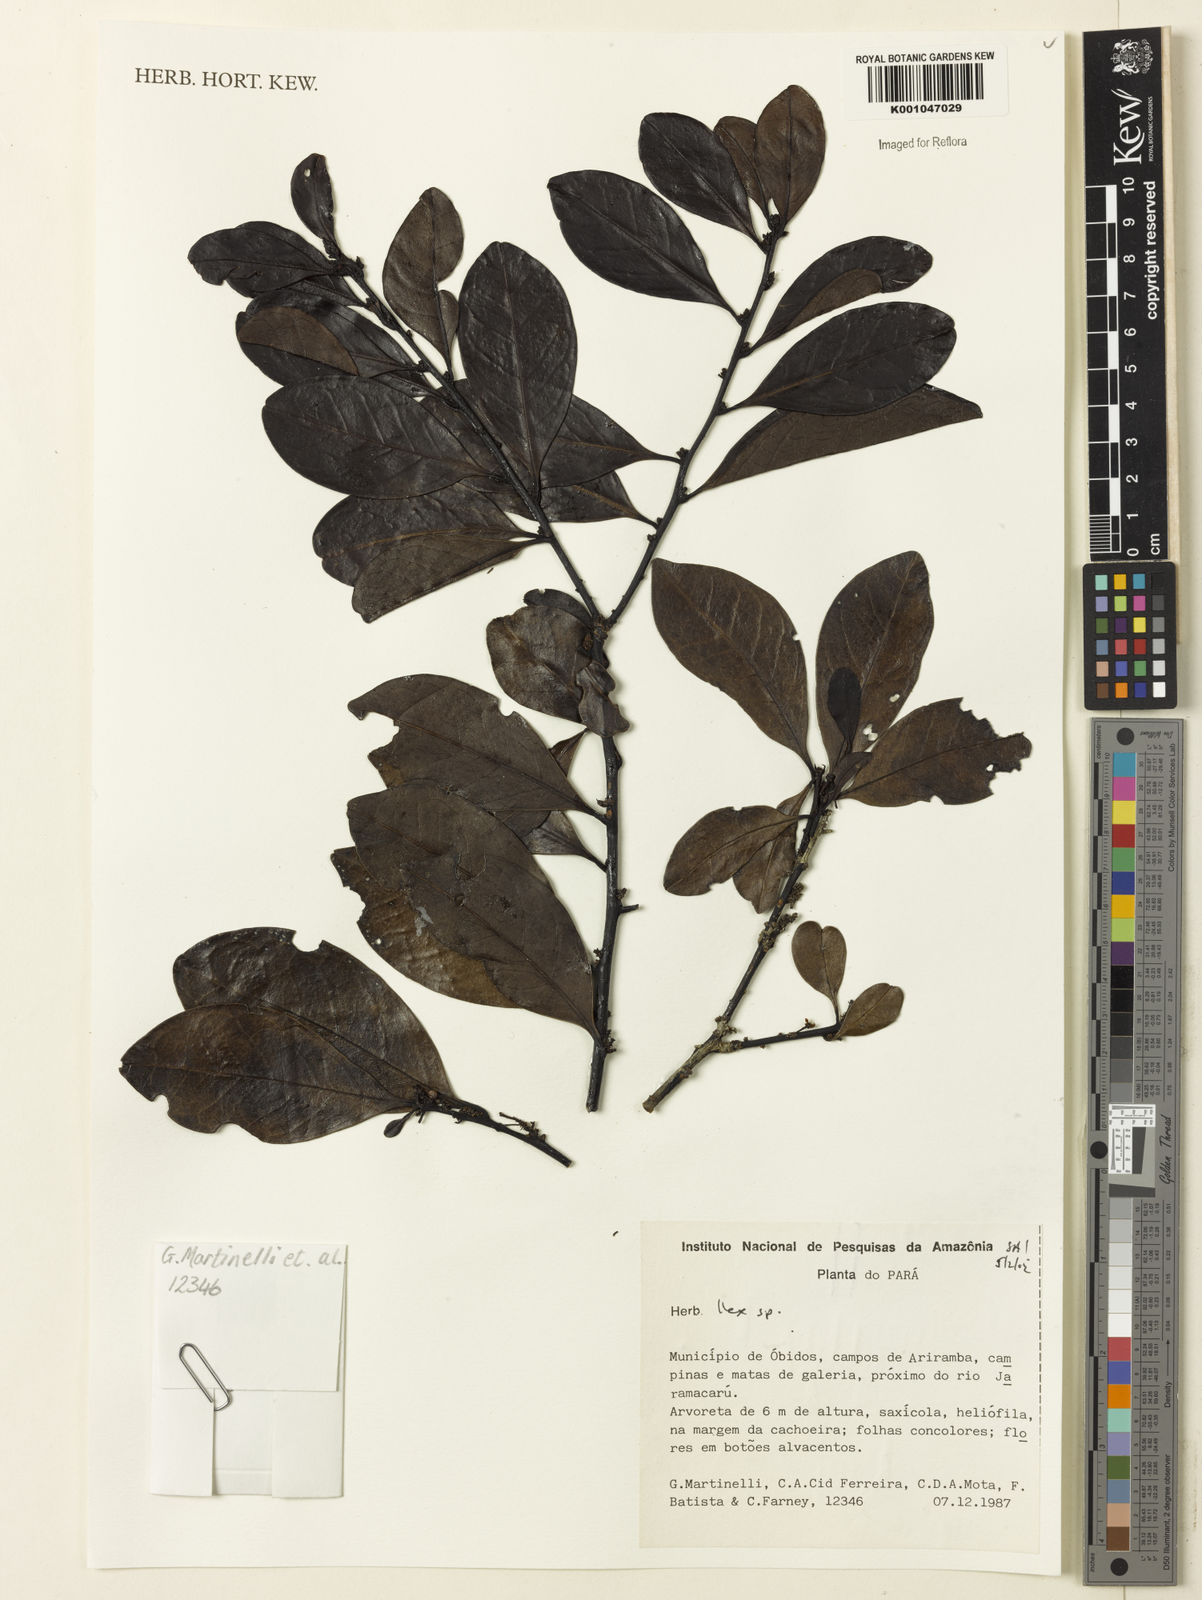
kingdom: Plantae
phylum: Tracheophyta
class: Magnoliopsida
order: Aquifoliales
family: Aquifoliaceae
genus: Ilex
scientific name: Ilex
